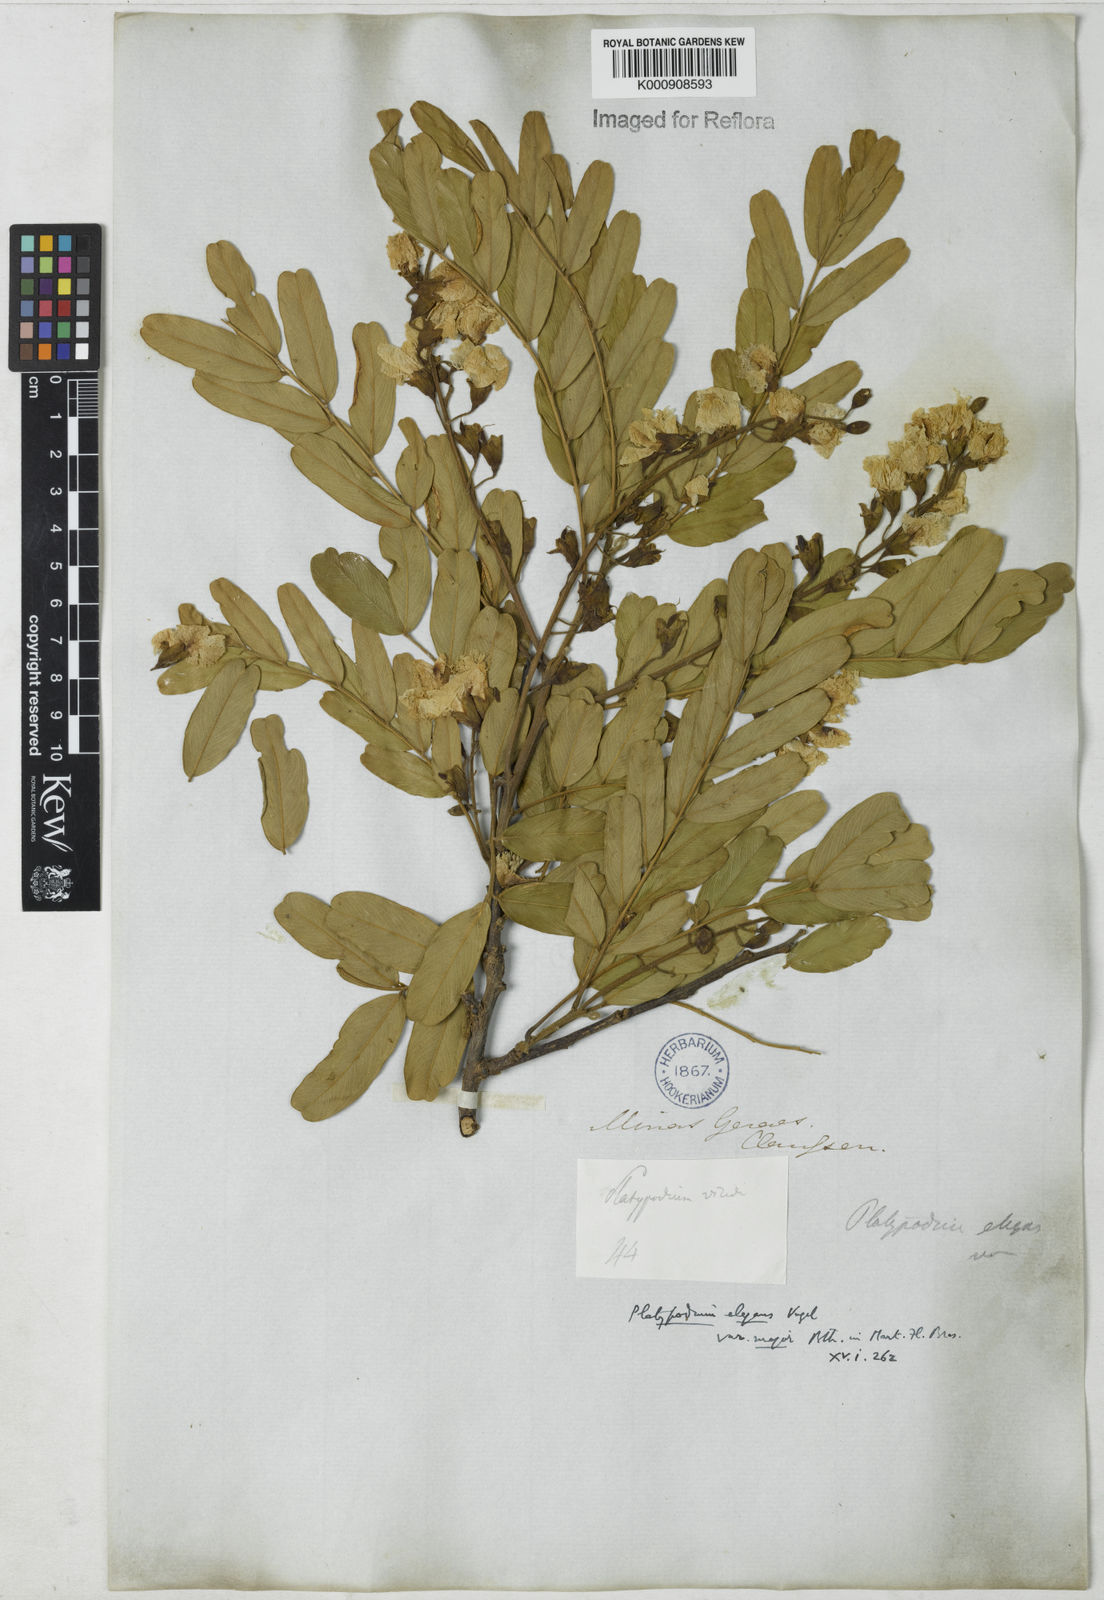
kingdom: Plantae
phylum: Tracheophyta
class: Magnoliopsida
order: Fabales
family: Fabaceae
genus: Platypodium
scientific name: Platypodium
